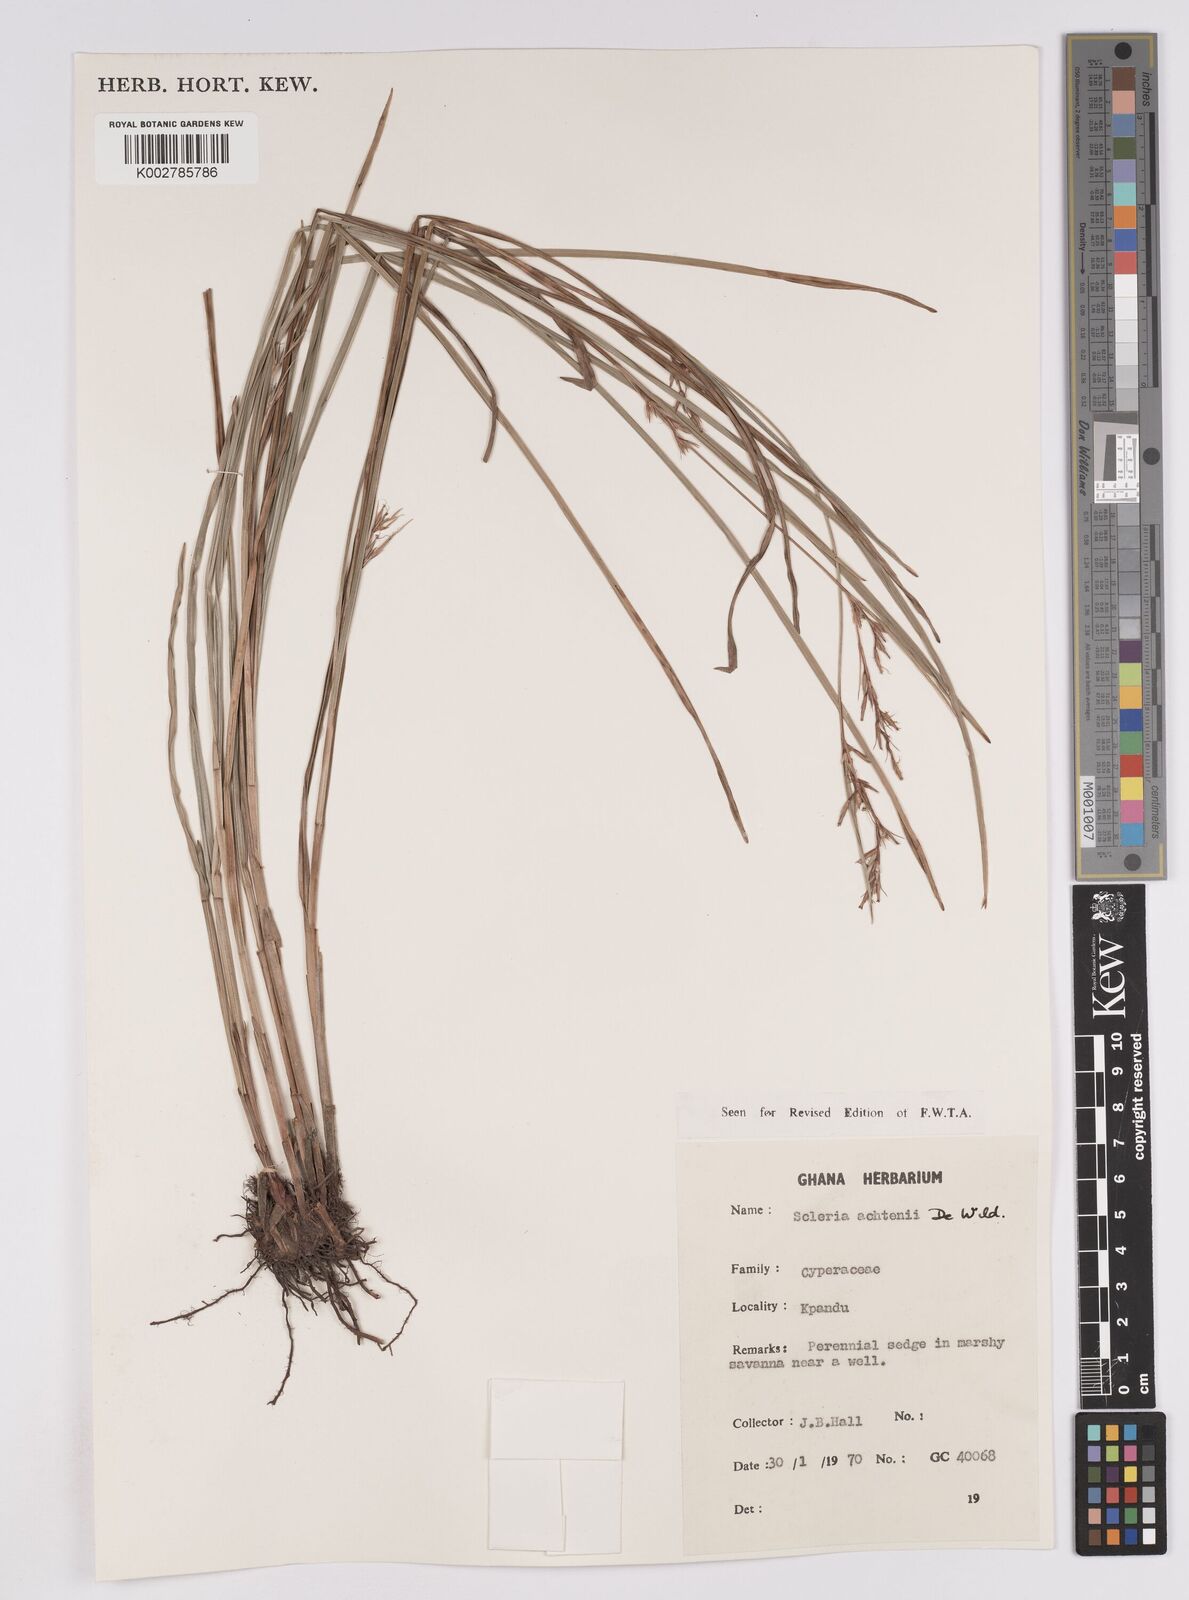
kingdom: Plantae
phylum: Tracheophyta
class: Liliopsida
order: Poales
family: Cyperaceae
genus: Scleria
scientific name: Scleria achtenii
